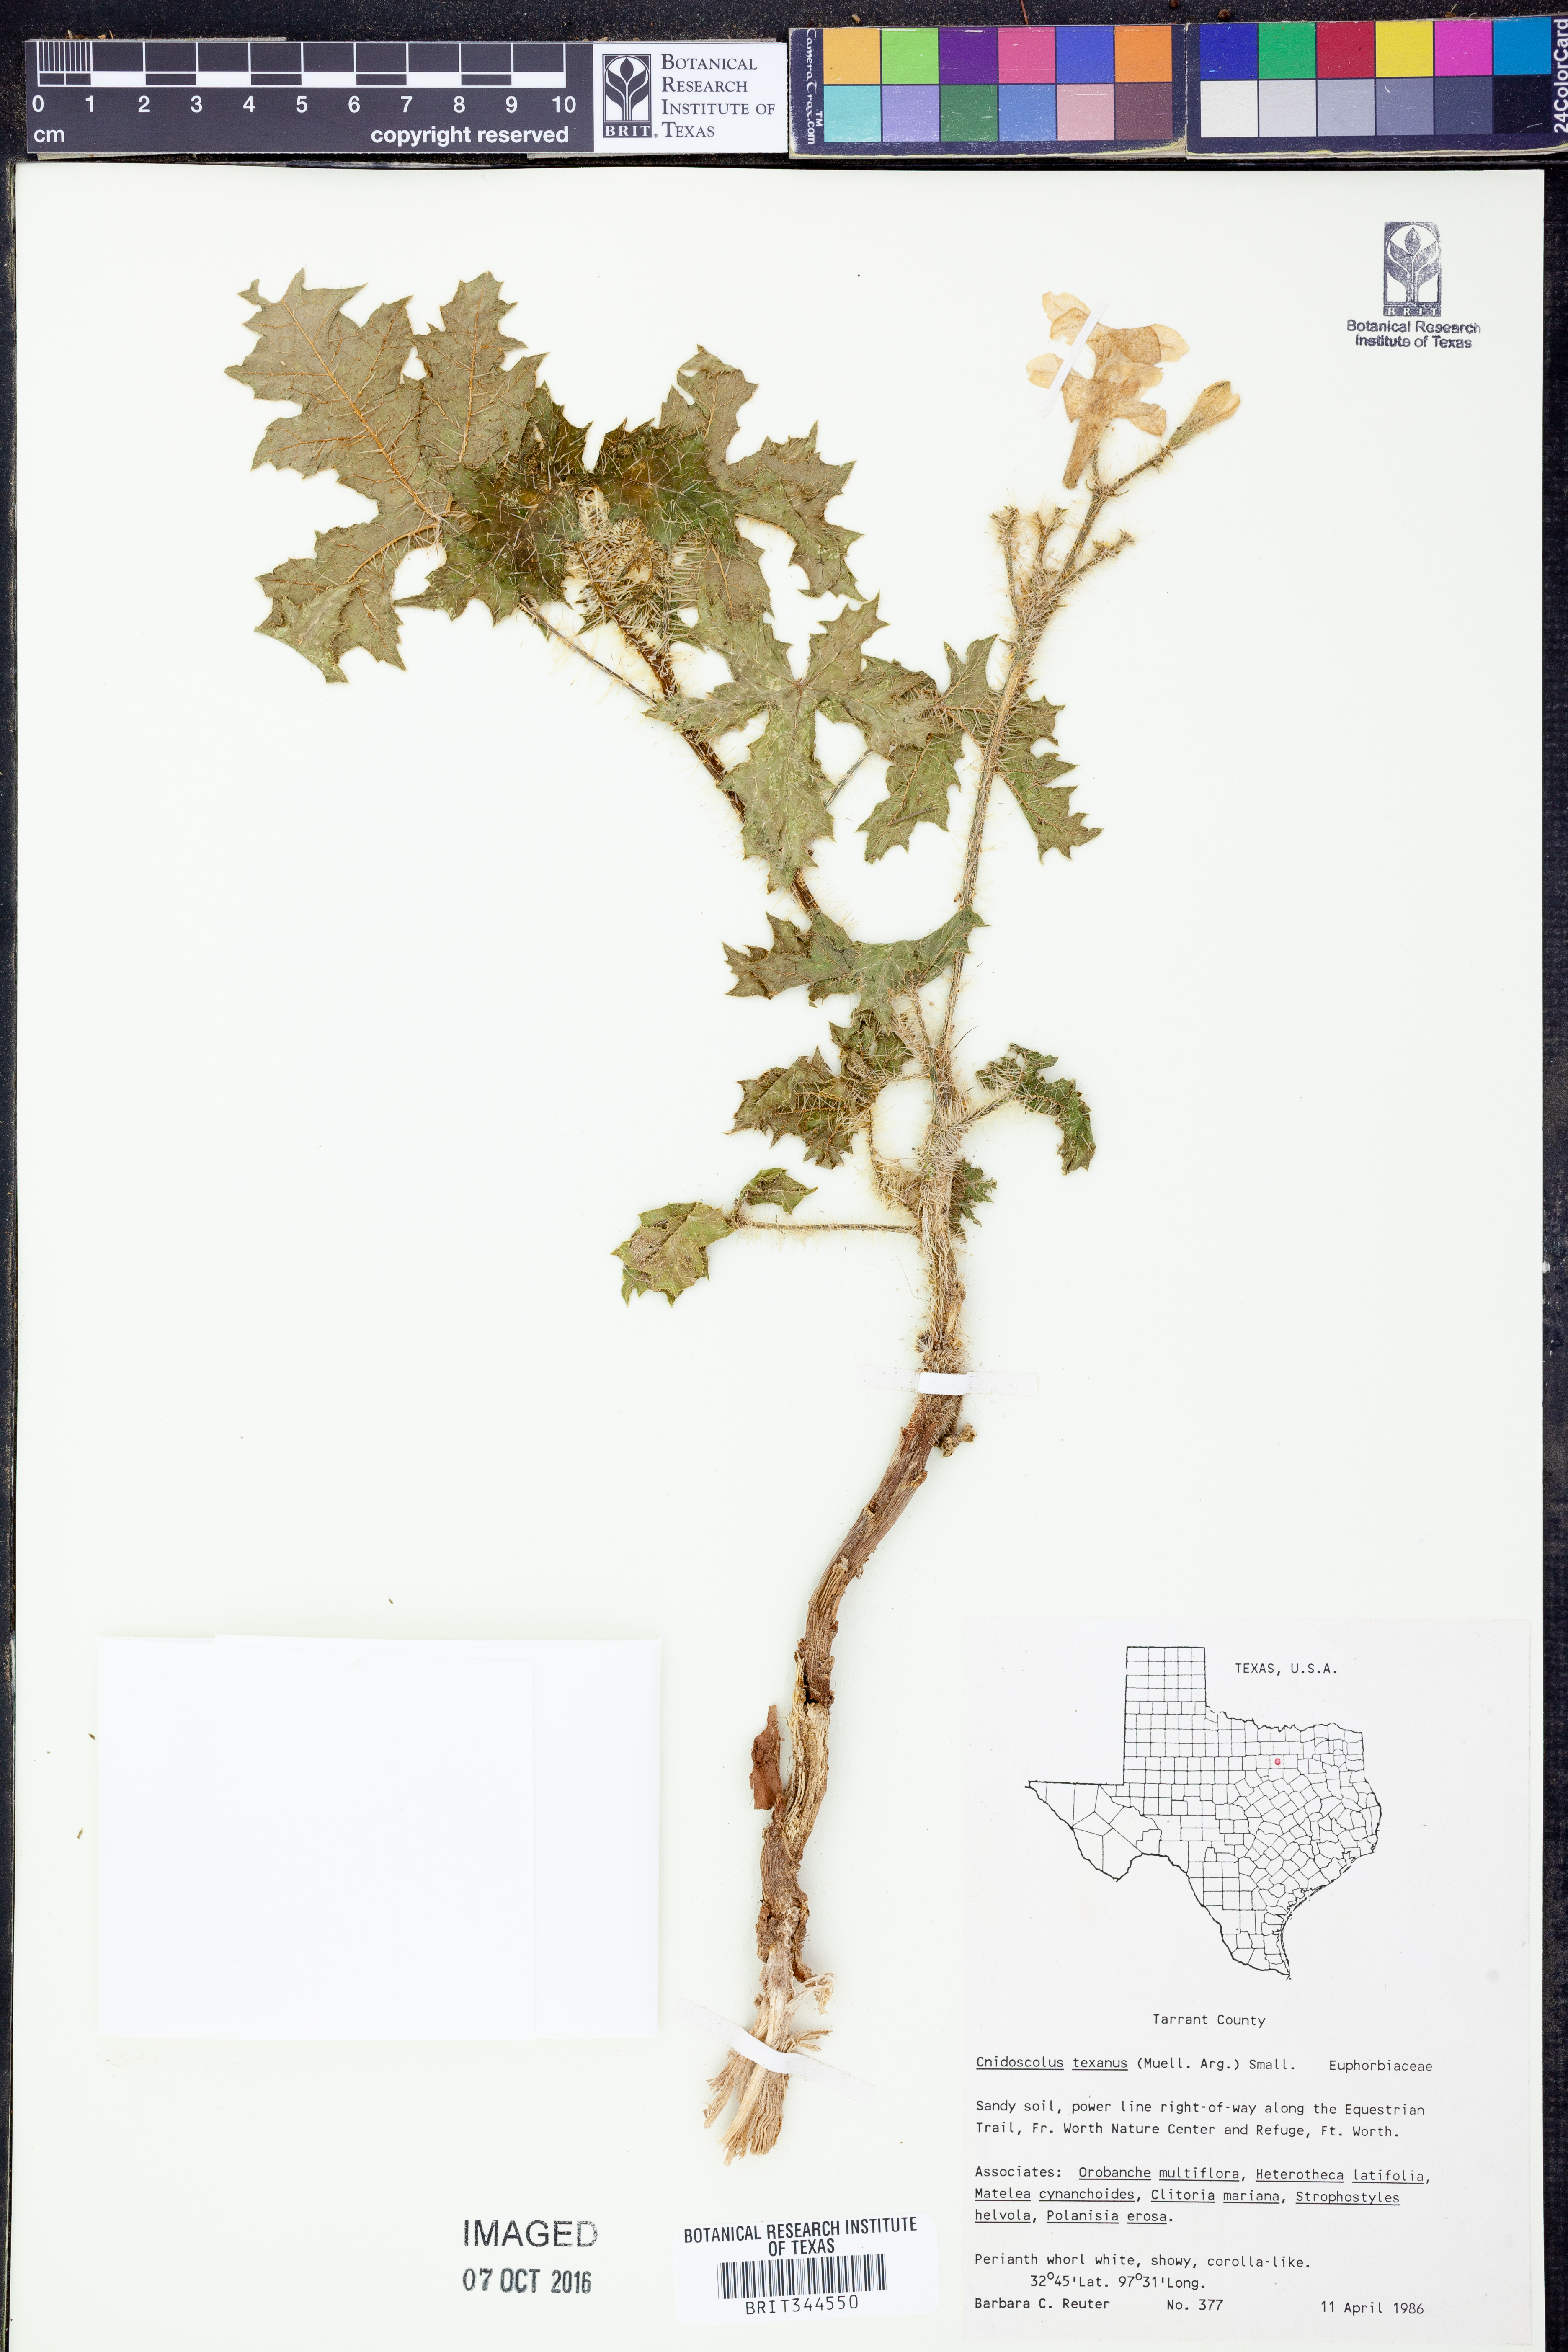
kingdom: Plantae
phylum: Tracheophyta
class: Magnoliopsida
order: Malpighiales
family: Euphorbiaceae
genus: Cnidoscolus
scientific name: Cnidoscolus texanus
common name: Texas bull-nettle
